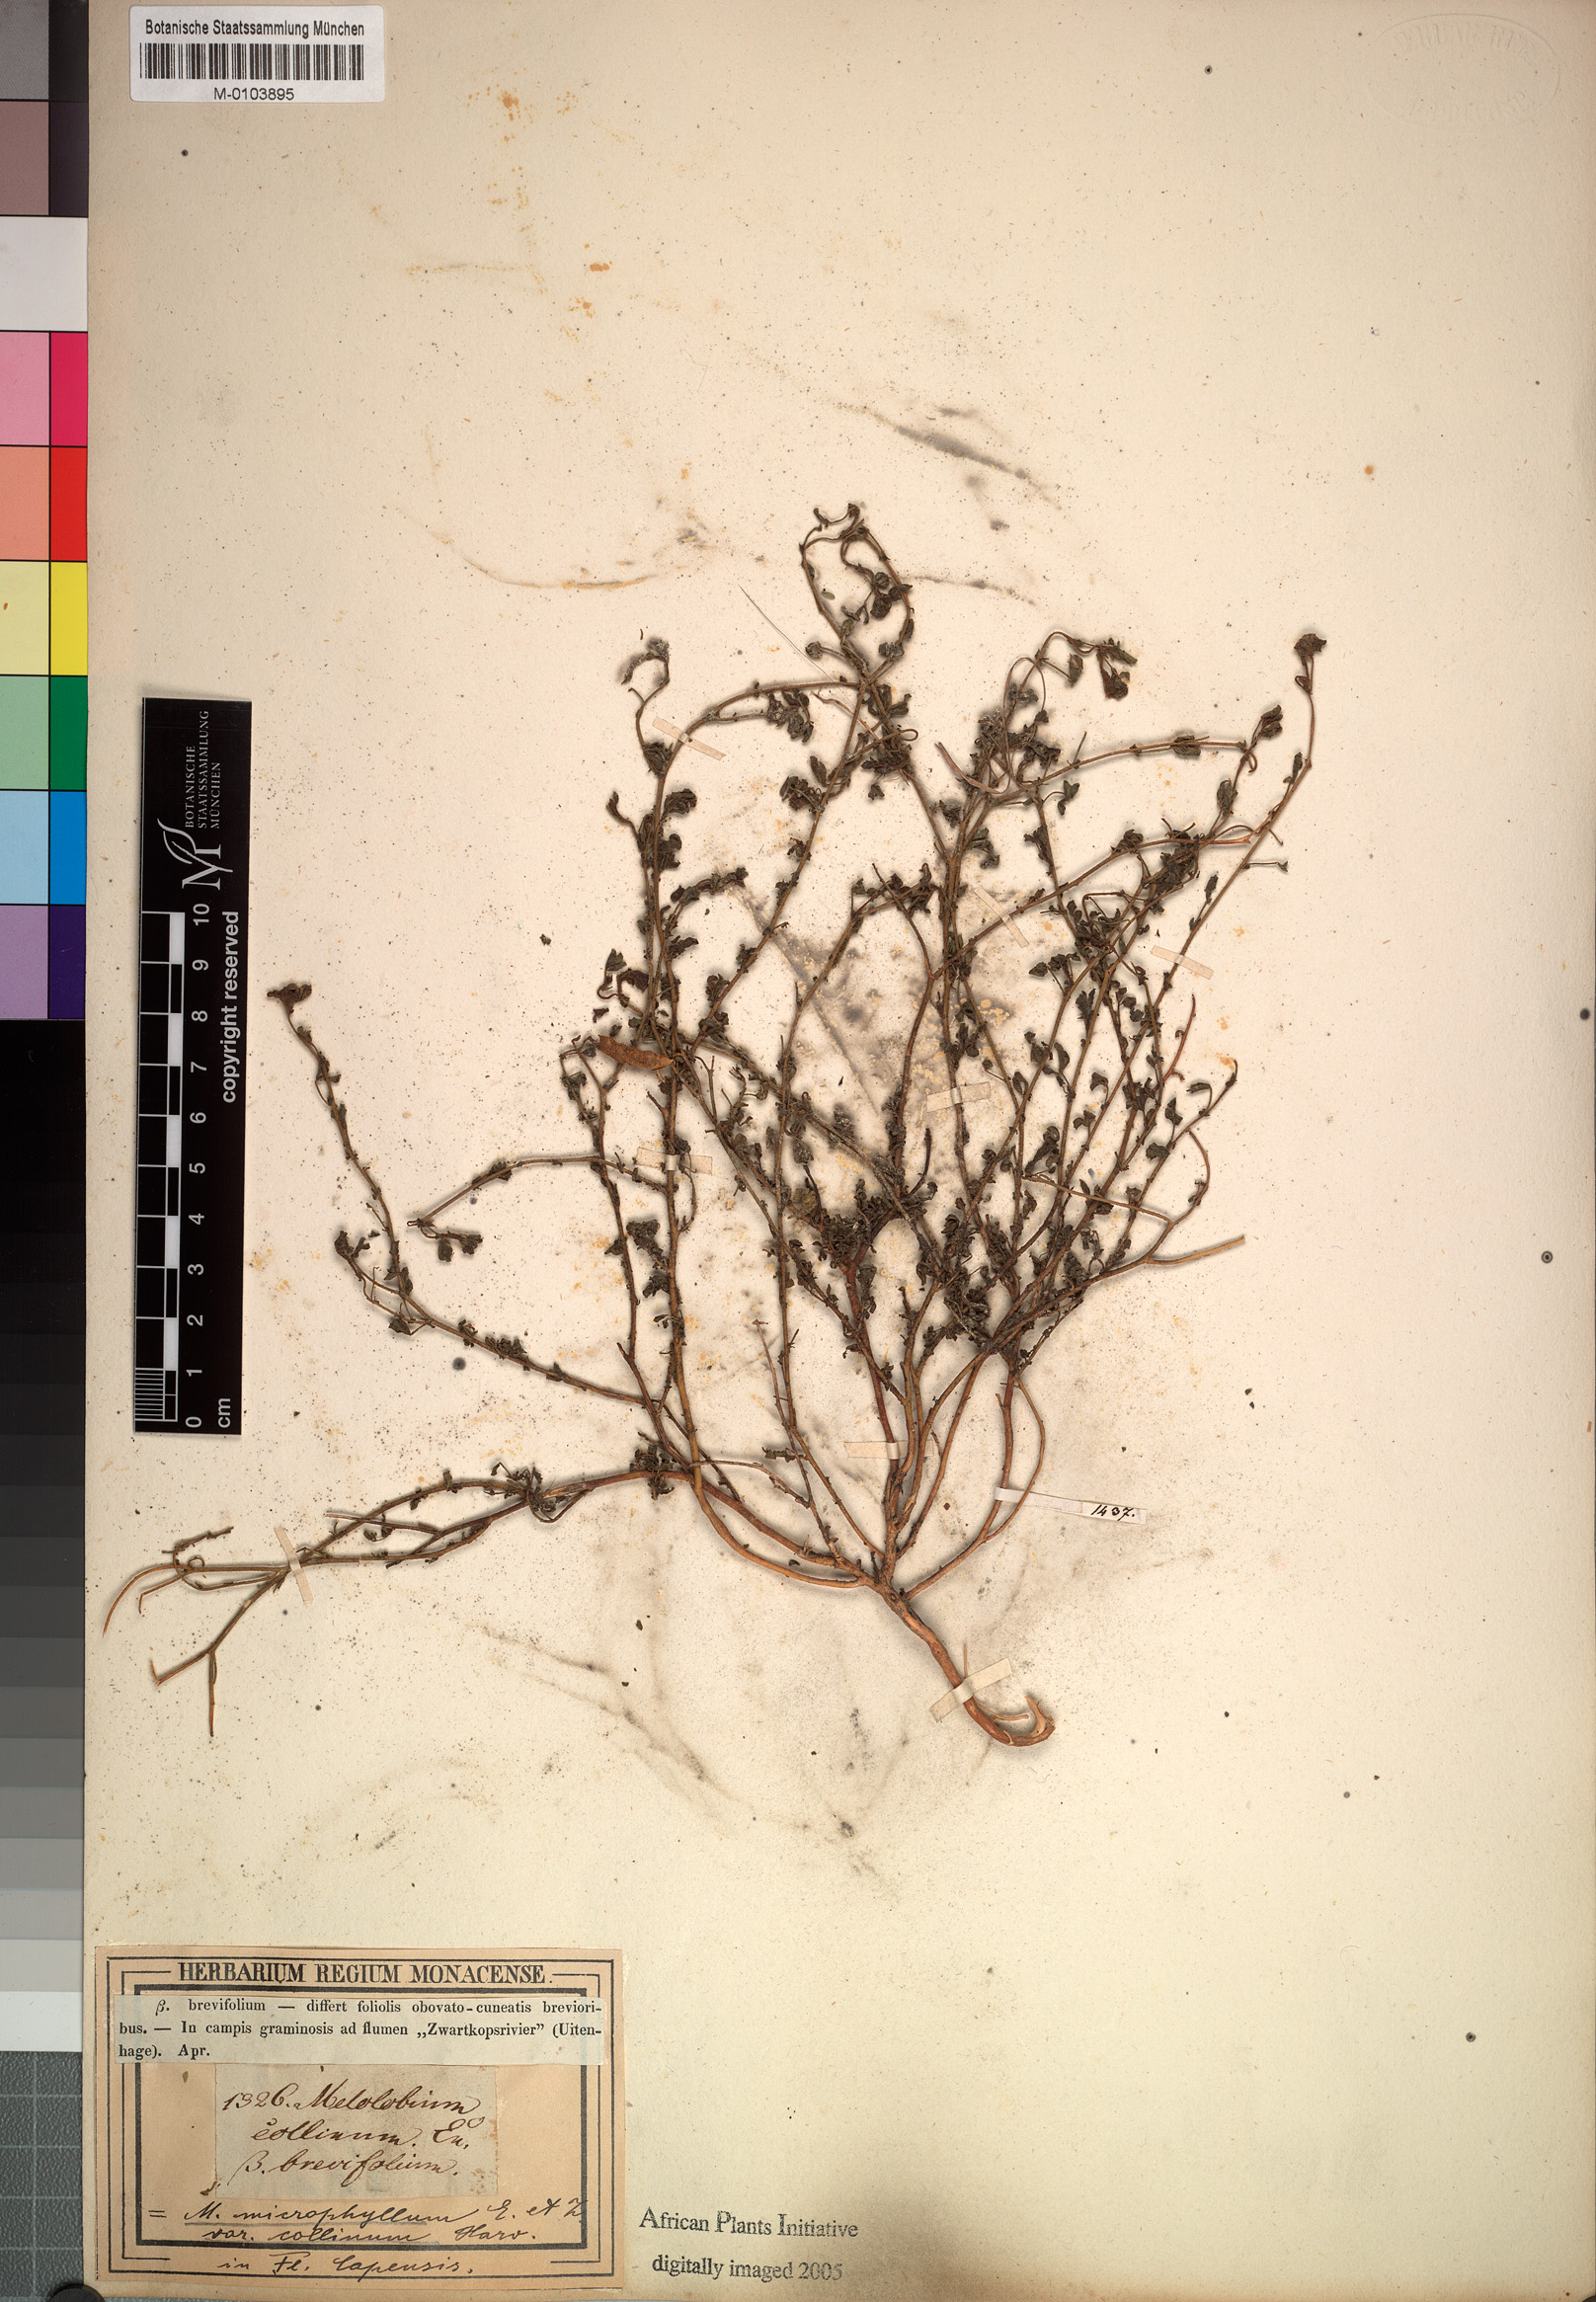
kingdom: Plantae
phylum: Tracheophyta
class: Magnoliopsida
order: Fabales
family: Fabaceae
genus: Melolobium
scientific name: Melolobium microphyllum
